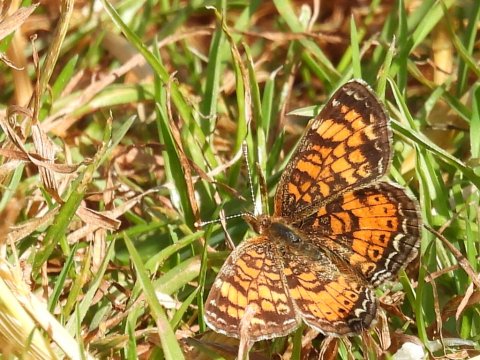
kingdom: Animalia
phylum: Arthropoda
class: Insecta
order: Lepidoptera
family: Nymphalidae
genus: Phyciodes
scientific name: Phyciodes tharos
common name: Pearl Crescent
